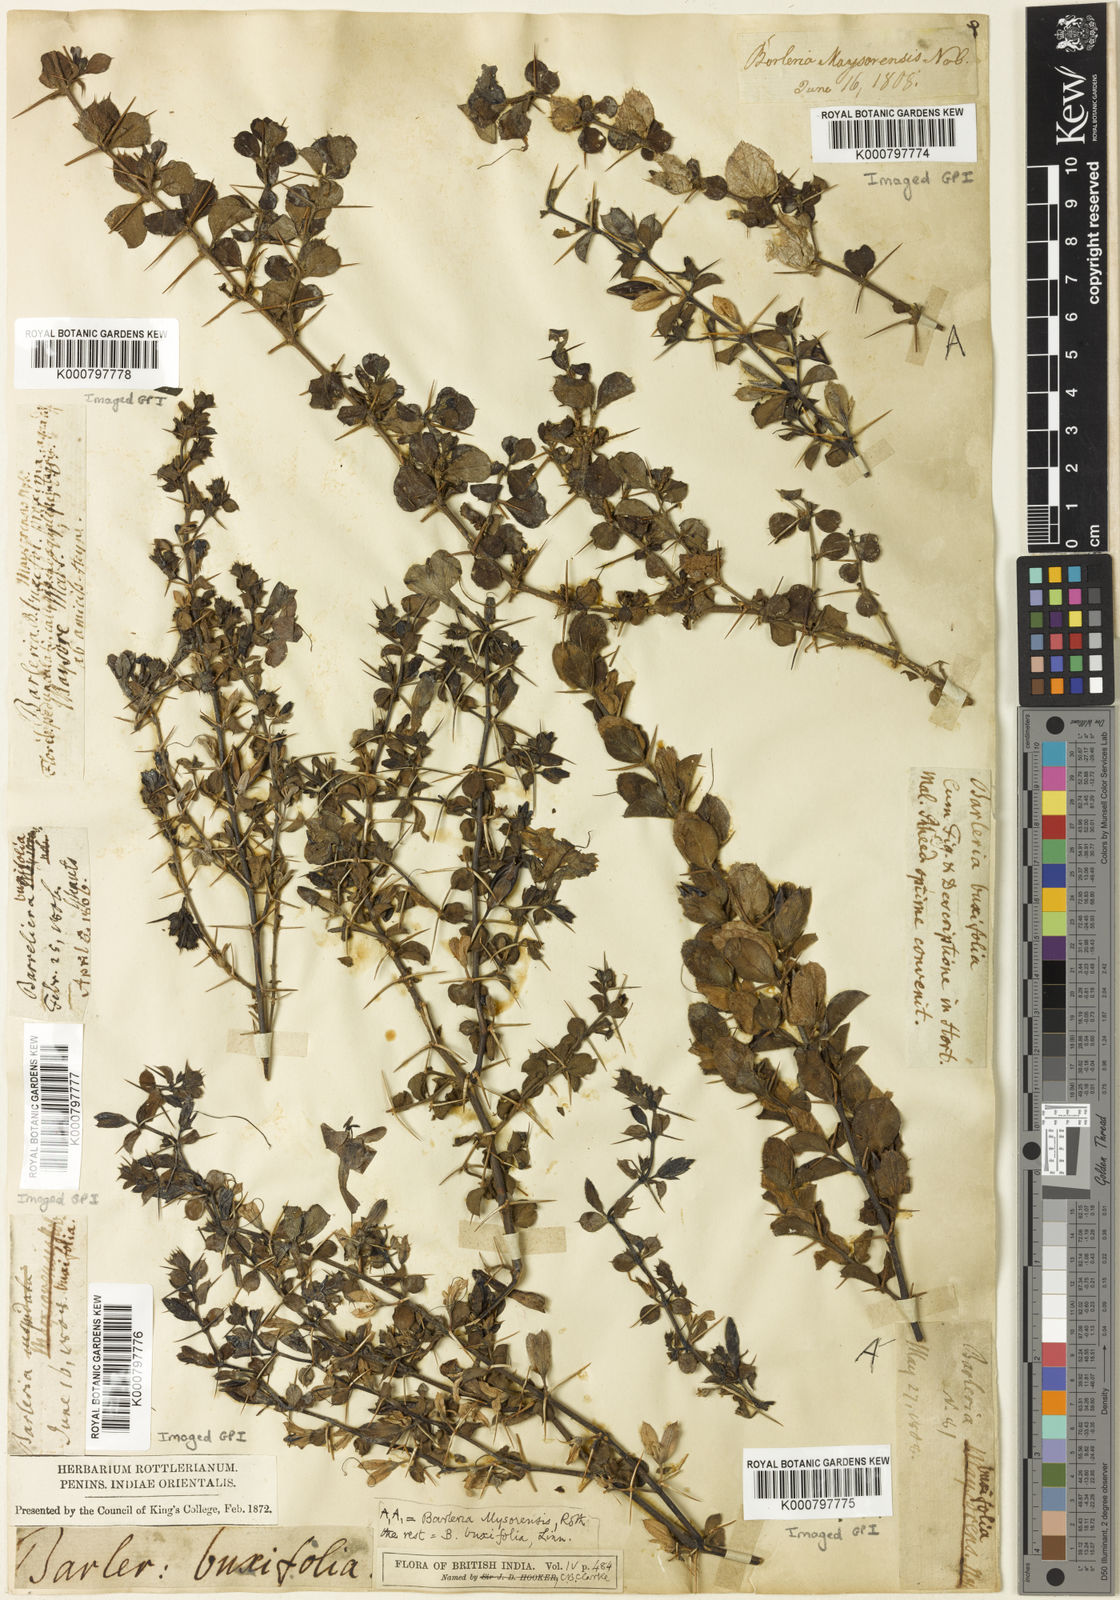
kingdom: Plantae
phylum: Tracheophyta
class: Magnoliopsida
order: Lamiales
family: Acanthaceae
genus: Barleria
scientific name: Barleria mysorensis
